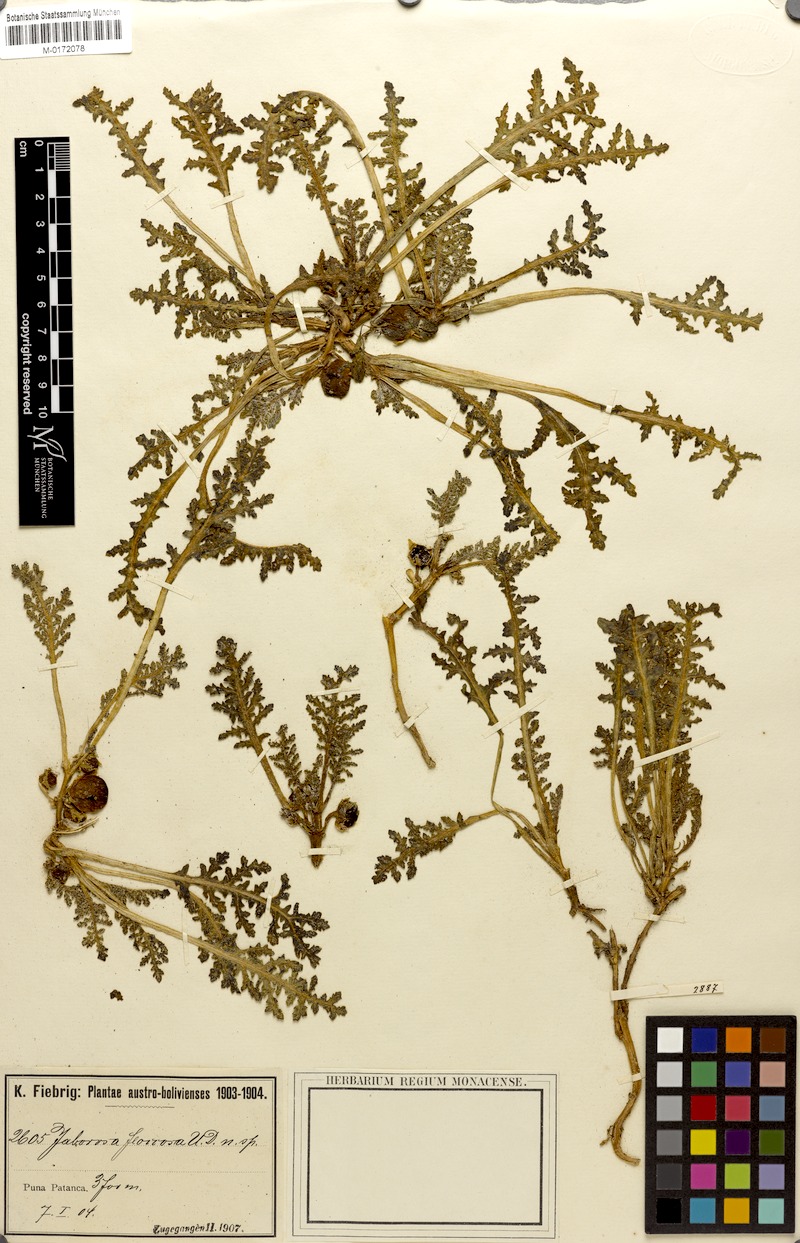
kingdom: Plantae
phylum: Tracheophyta
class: Magnoliopsida
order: Solanales
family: Solanaceae
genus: Jaborosa
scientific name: Jaborosa parviflora
